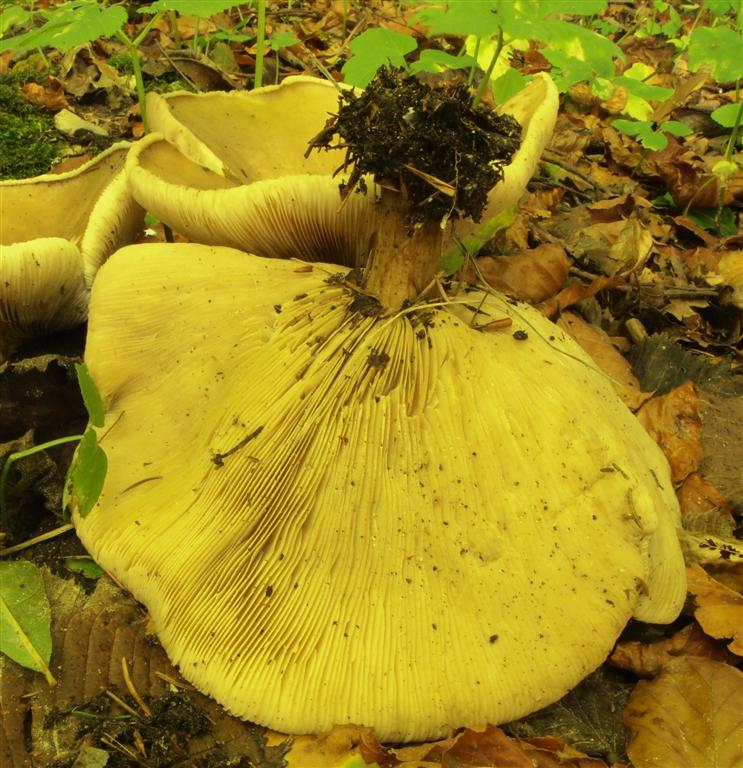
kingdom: Fungi
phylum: Basidiomycota
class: Agaricomycetes
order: Agaricales
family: Tricholomataceae
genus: Melanoleuca
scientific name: Melanoleuca grammopodia
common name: stribestokket munkehat
